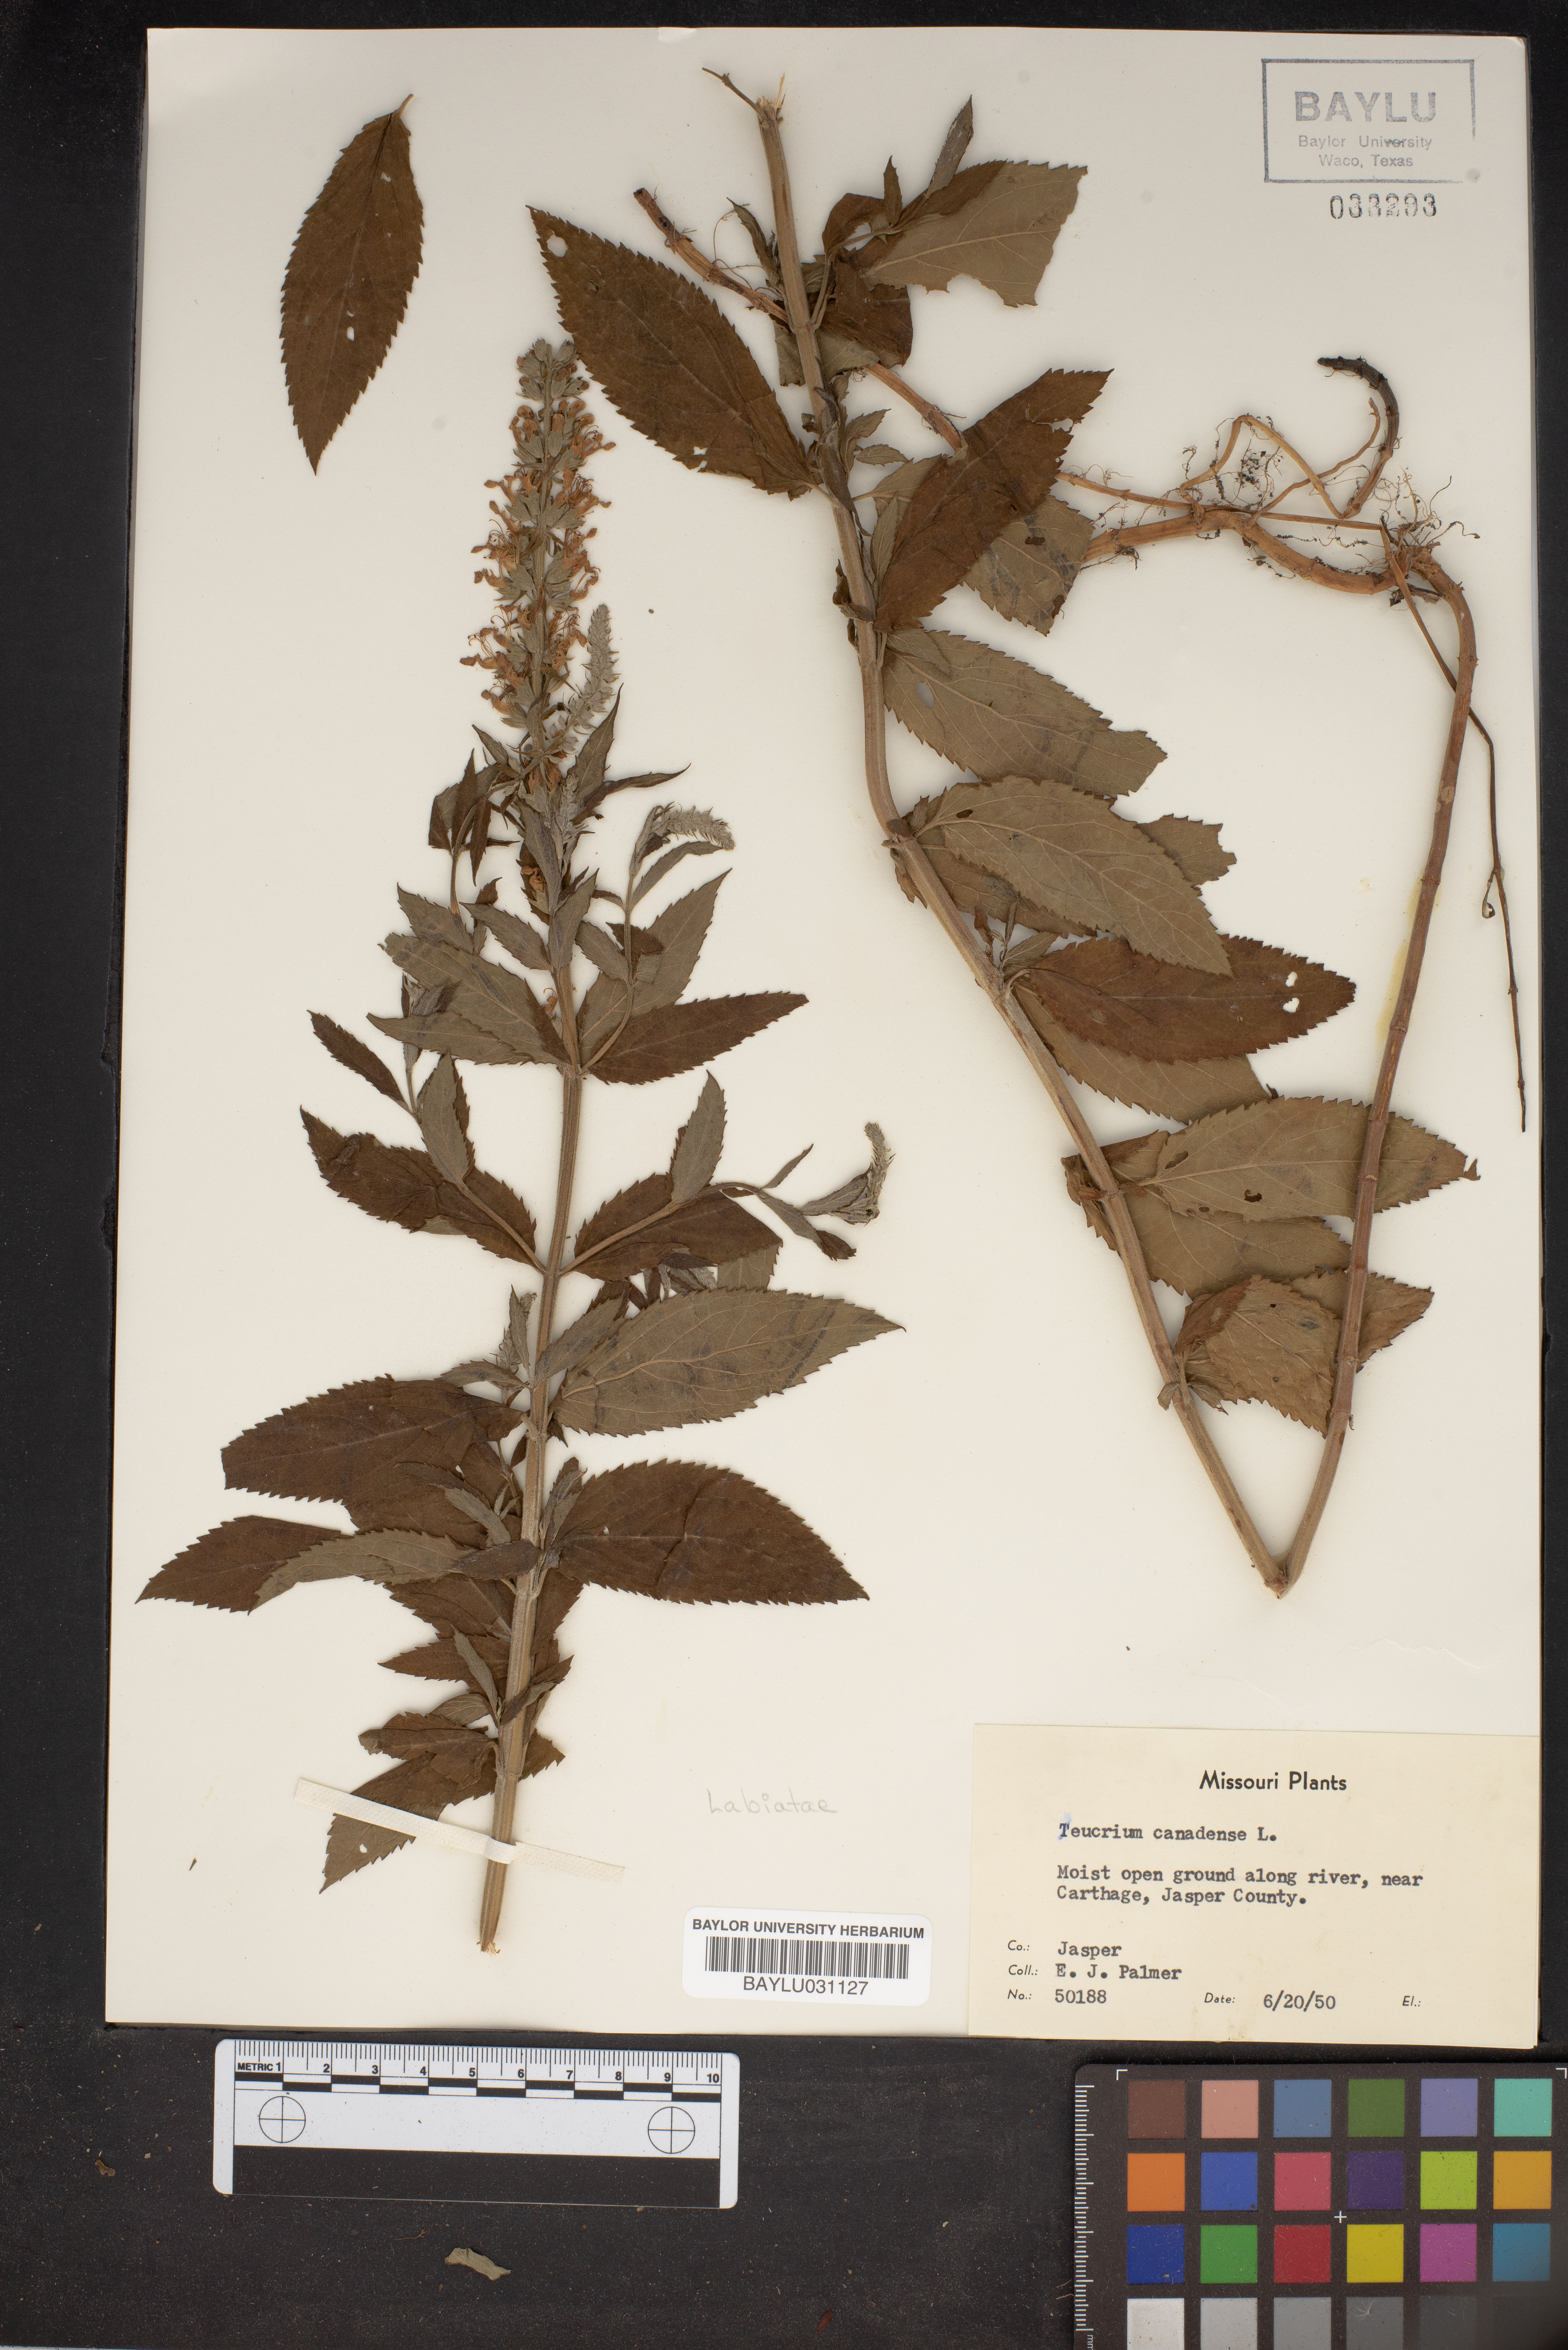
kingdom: Plantae
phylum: Tracheophyta
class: Magnoliopsida
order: Lamiales
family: Lamiaceae
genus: Teucrium
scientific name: Teucrium canadense
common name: American germander
